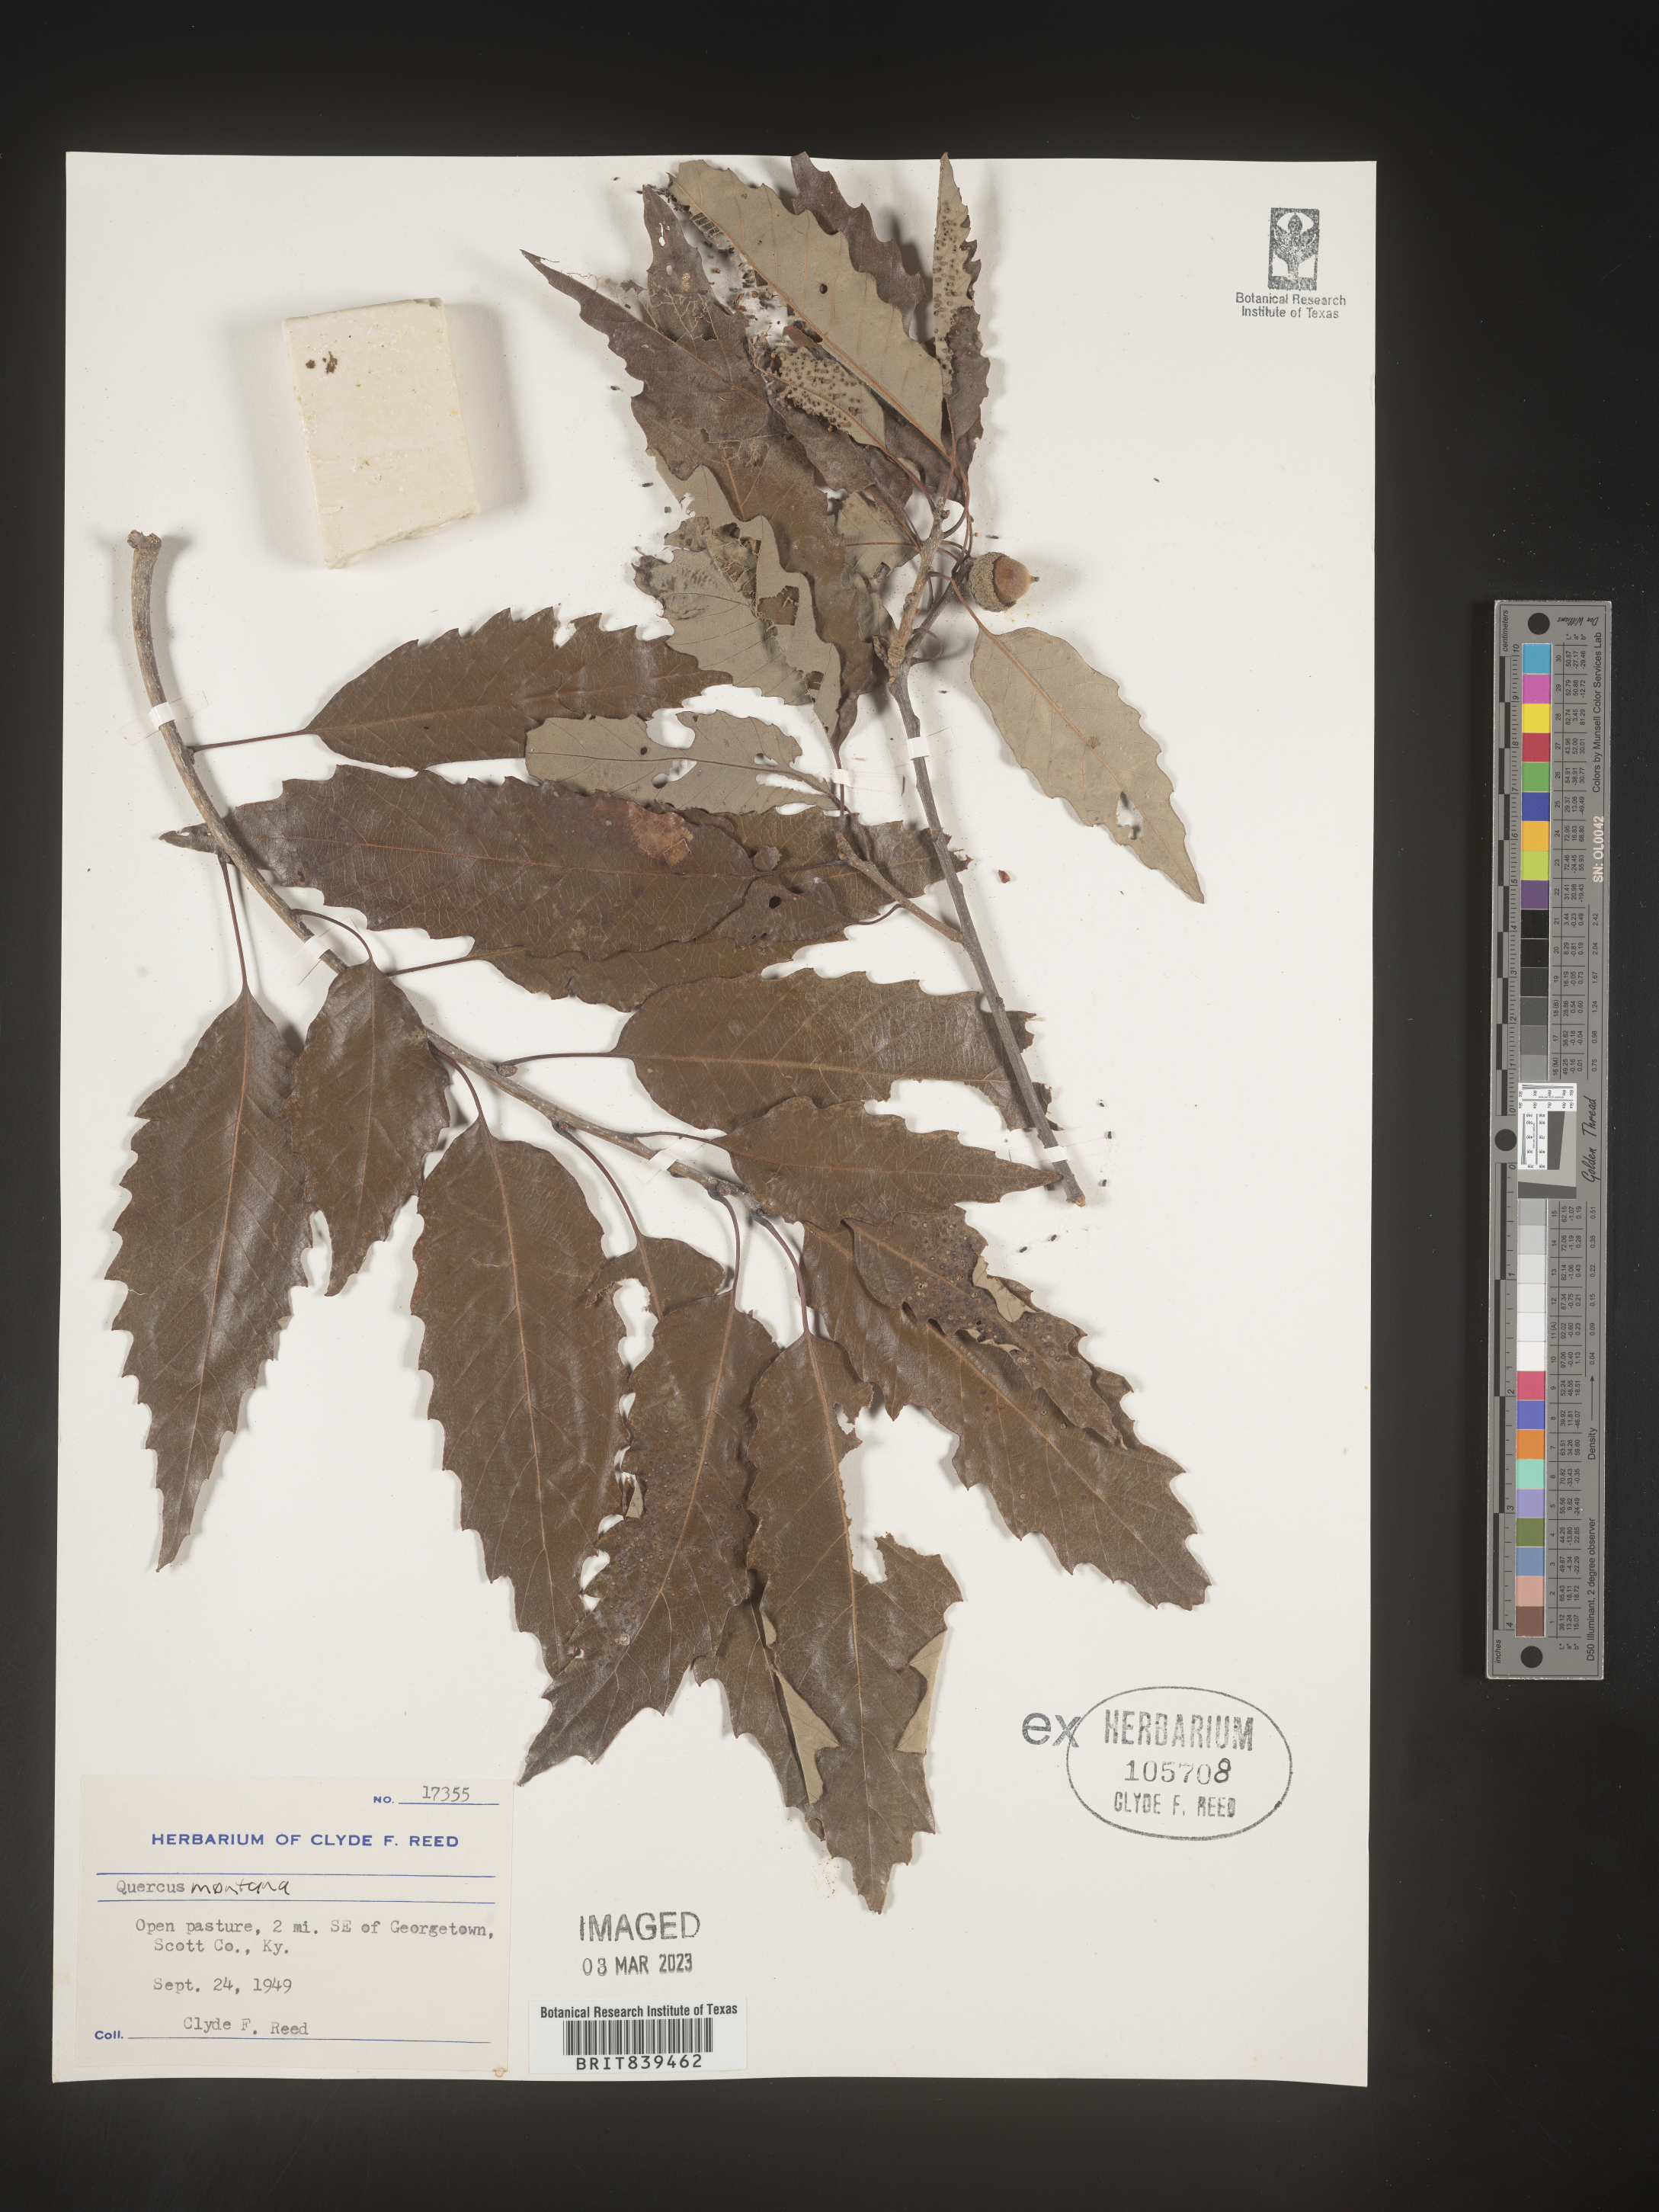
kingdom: Plantae
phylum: Tracheophyta
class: Magnoliopsida
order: Fagales
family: Fagaceae
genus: Quercus
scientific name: Quercus montana
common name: Chestnut oak
